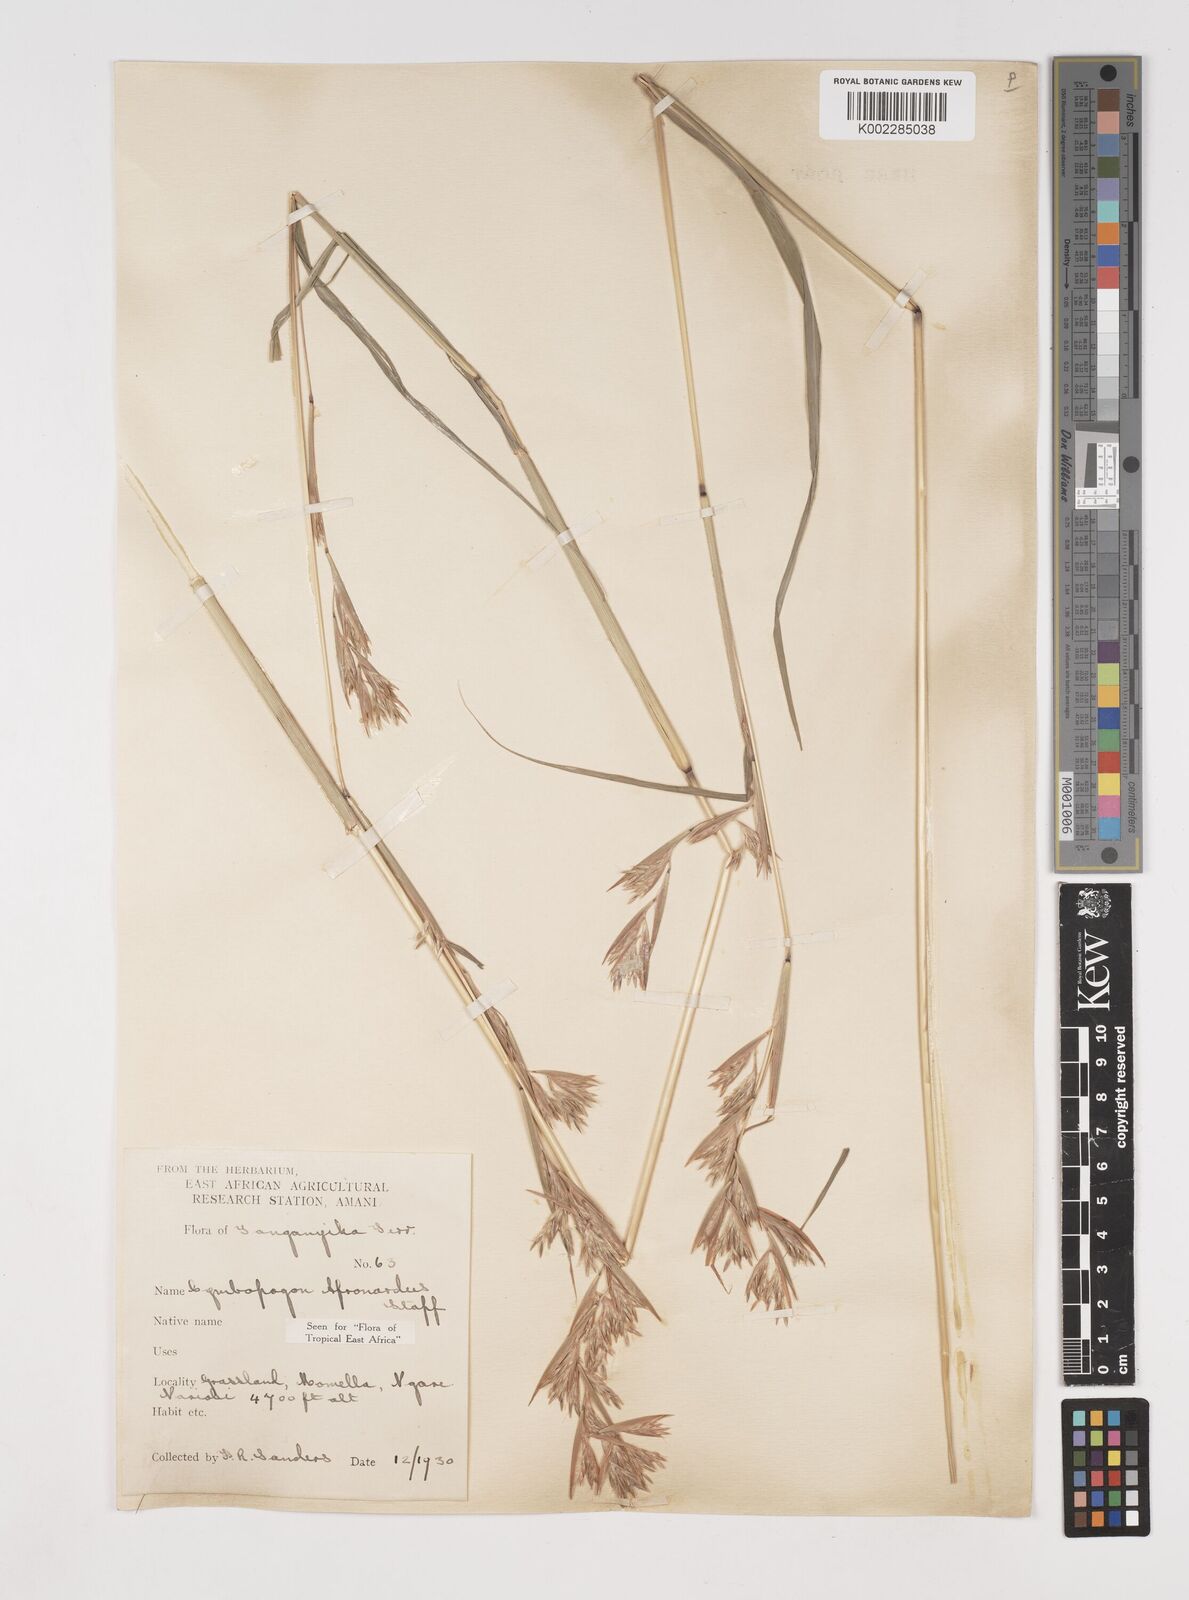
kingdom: Plantae
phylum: Tracheophyta
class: Liliopsida
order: Poales
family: Poaceae
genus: Cymbopogon
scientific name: Cymbopogon nardus
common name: Giant turpentine grass
